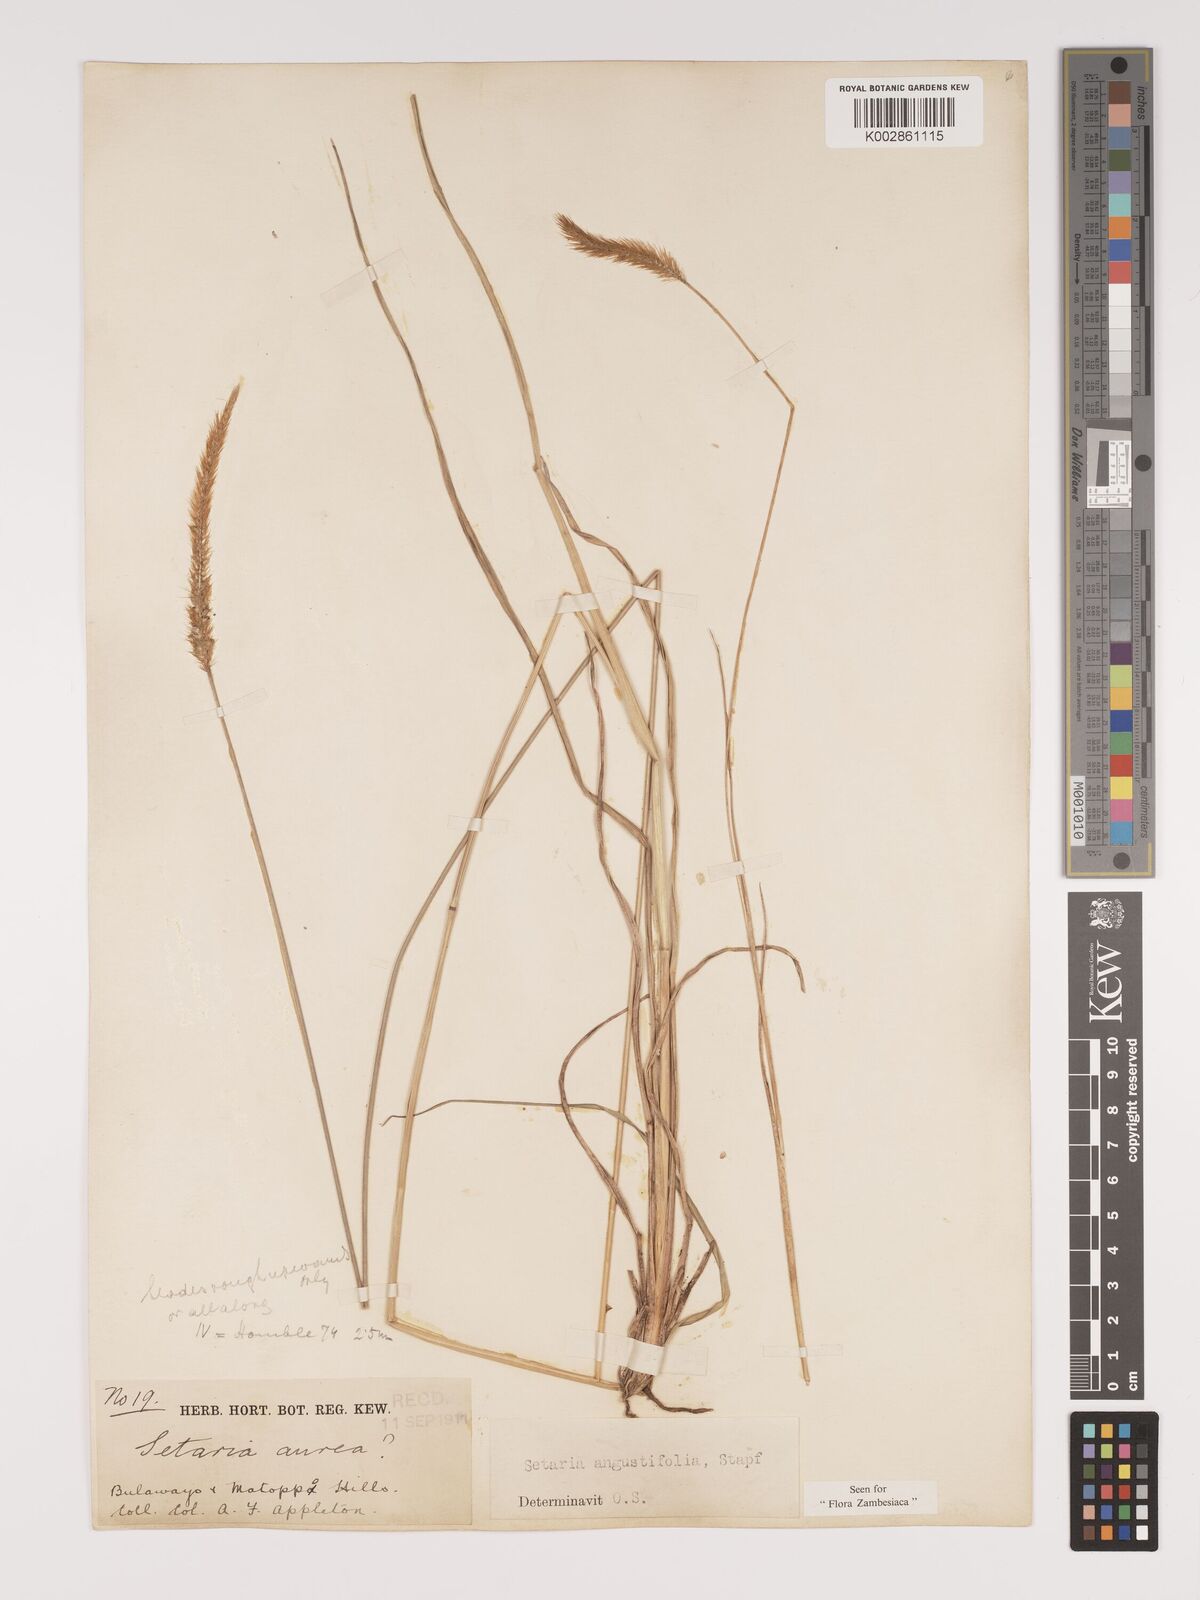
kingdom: Plantae
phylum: Tracheophyta
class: Liliopsida
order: Poales
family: Poaceae
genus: Setaria
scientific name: Setaria sphacelata
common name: African bristlegrass
